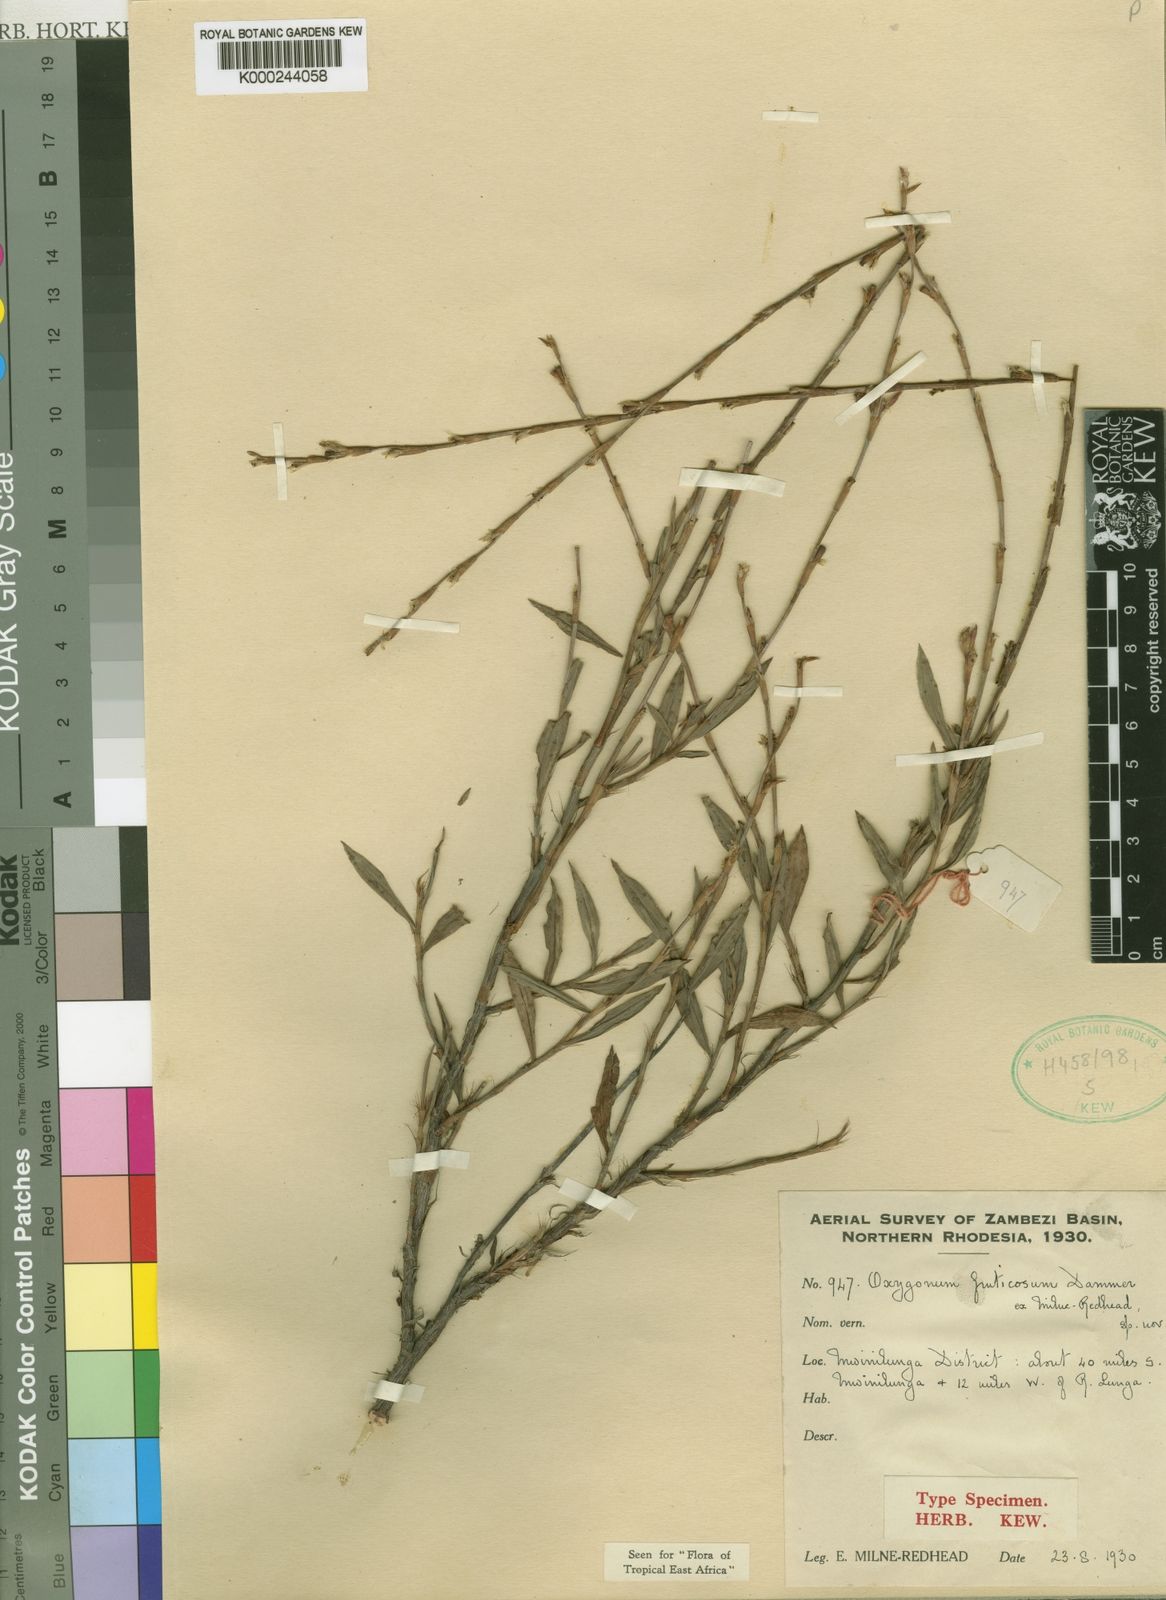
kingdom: Plantae
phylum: Tracheophyta
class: Magnoliopsida
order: Caryophyllales
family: Polygonaceae
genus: Oxygonum
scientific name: Oxygonum fruticosum
